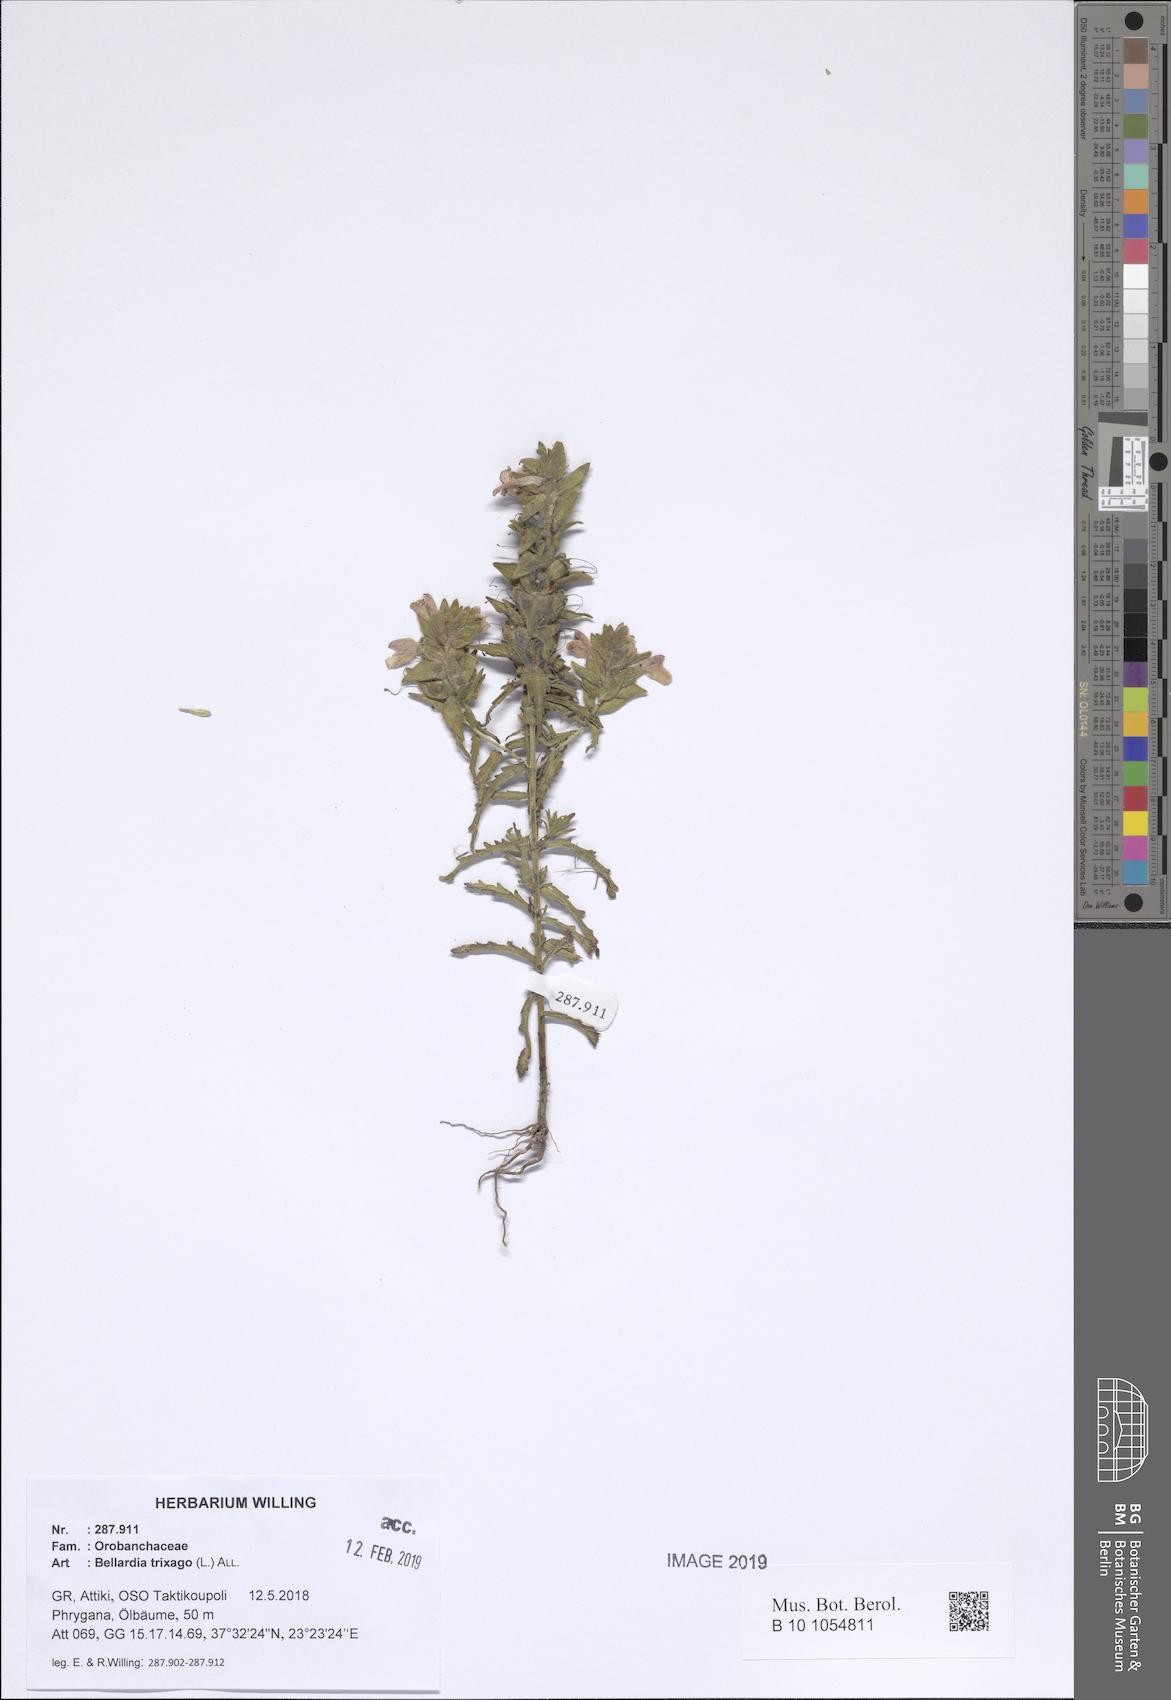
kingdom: Plantae
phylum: Tracheophyta
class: Magnoliopsida
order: Lamiales
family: Orobanchaceae
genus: Bellardia
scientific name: Bellardia trixago
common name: Mediterranean lineseed
